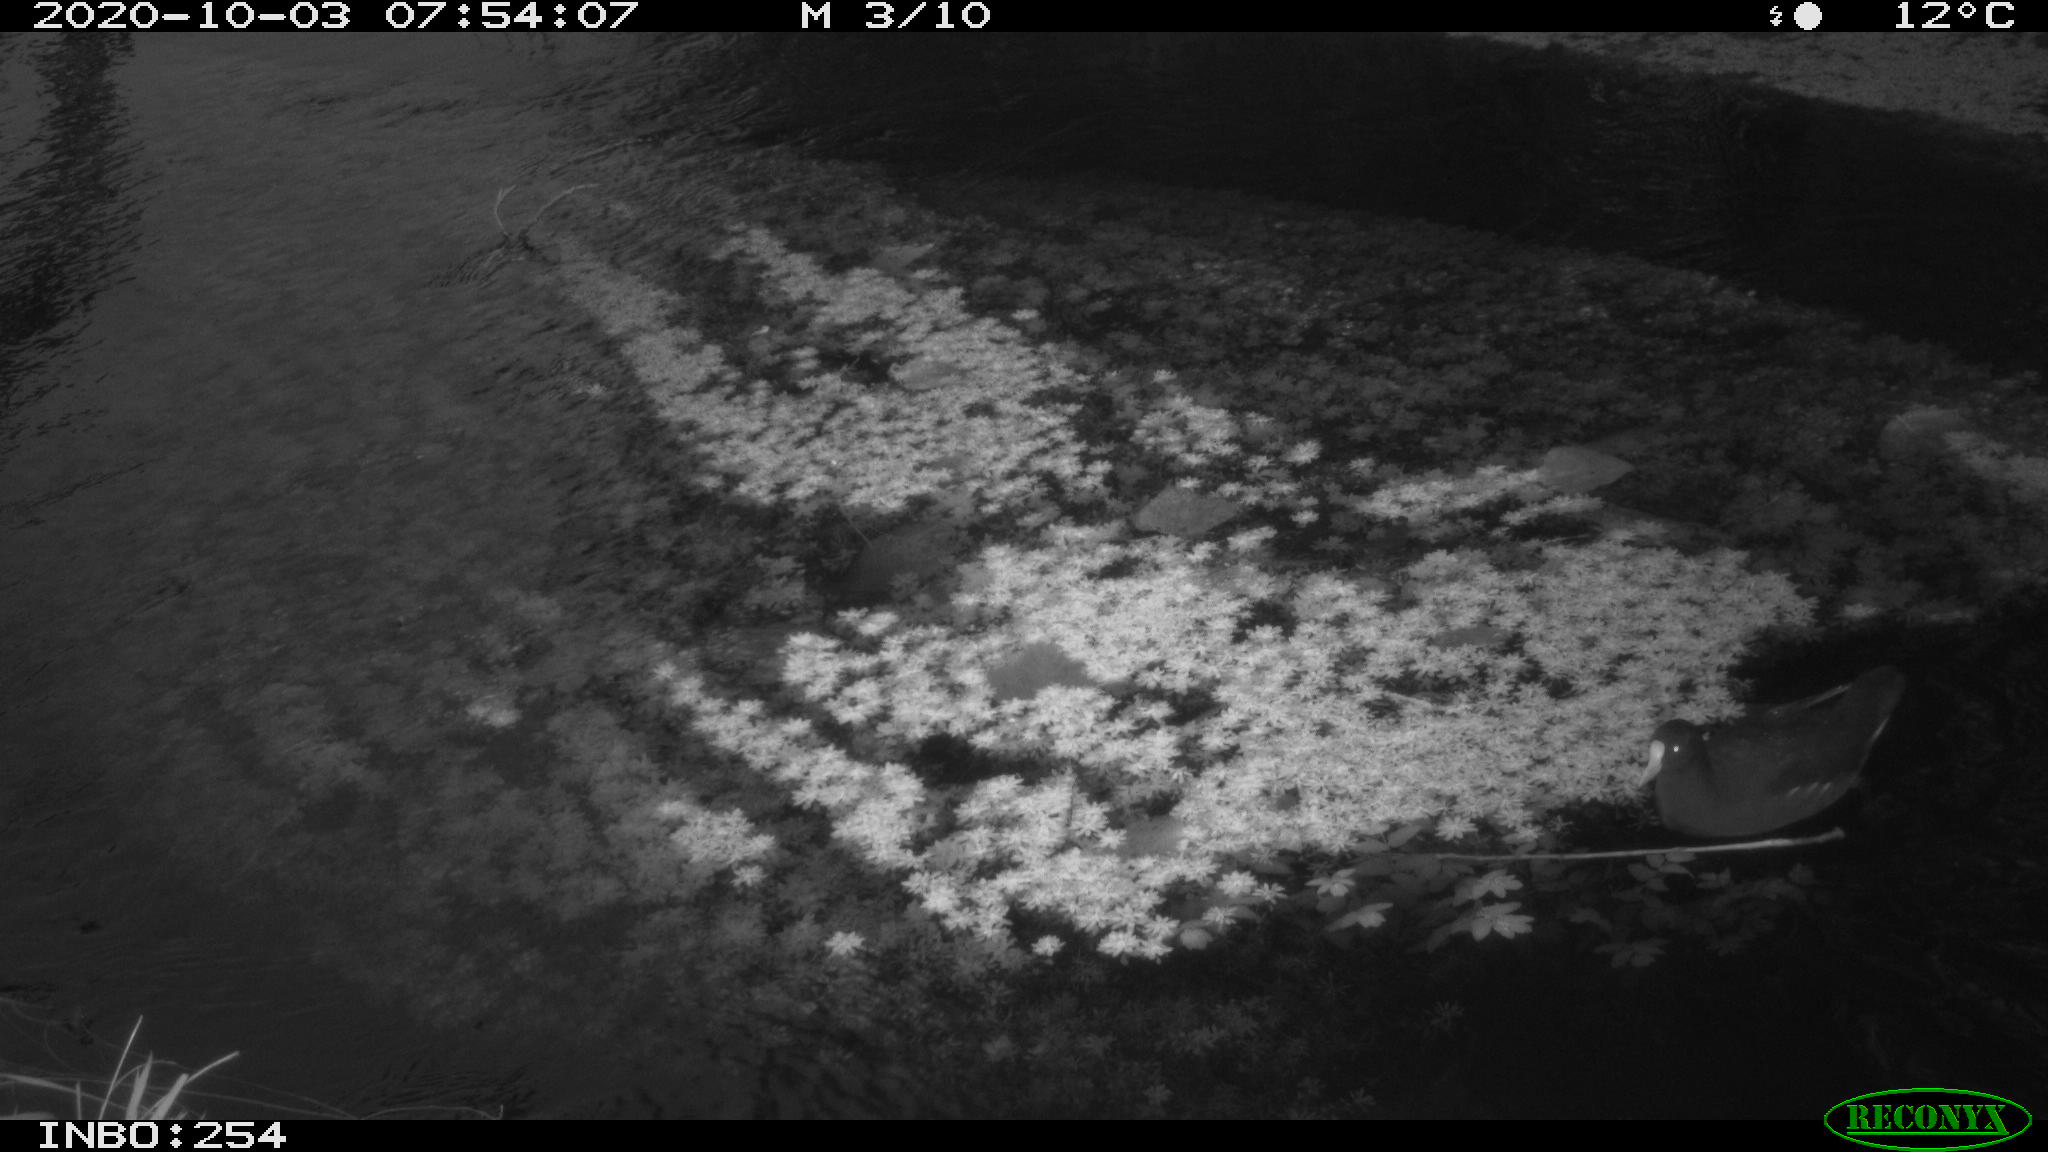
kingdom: Animalia
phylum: Chordata
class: Aves
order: Gruiformes
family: Rallidae
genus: Gallinula
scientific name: Gallinula chloropus
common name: Common moorhen
